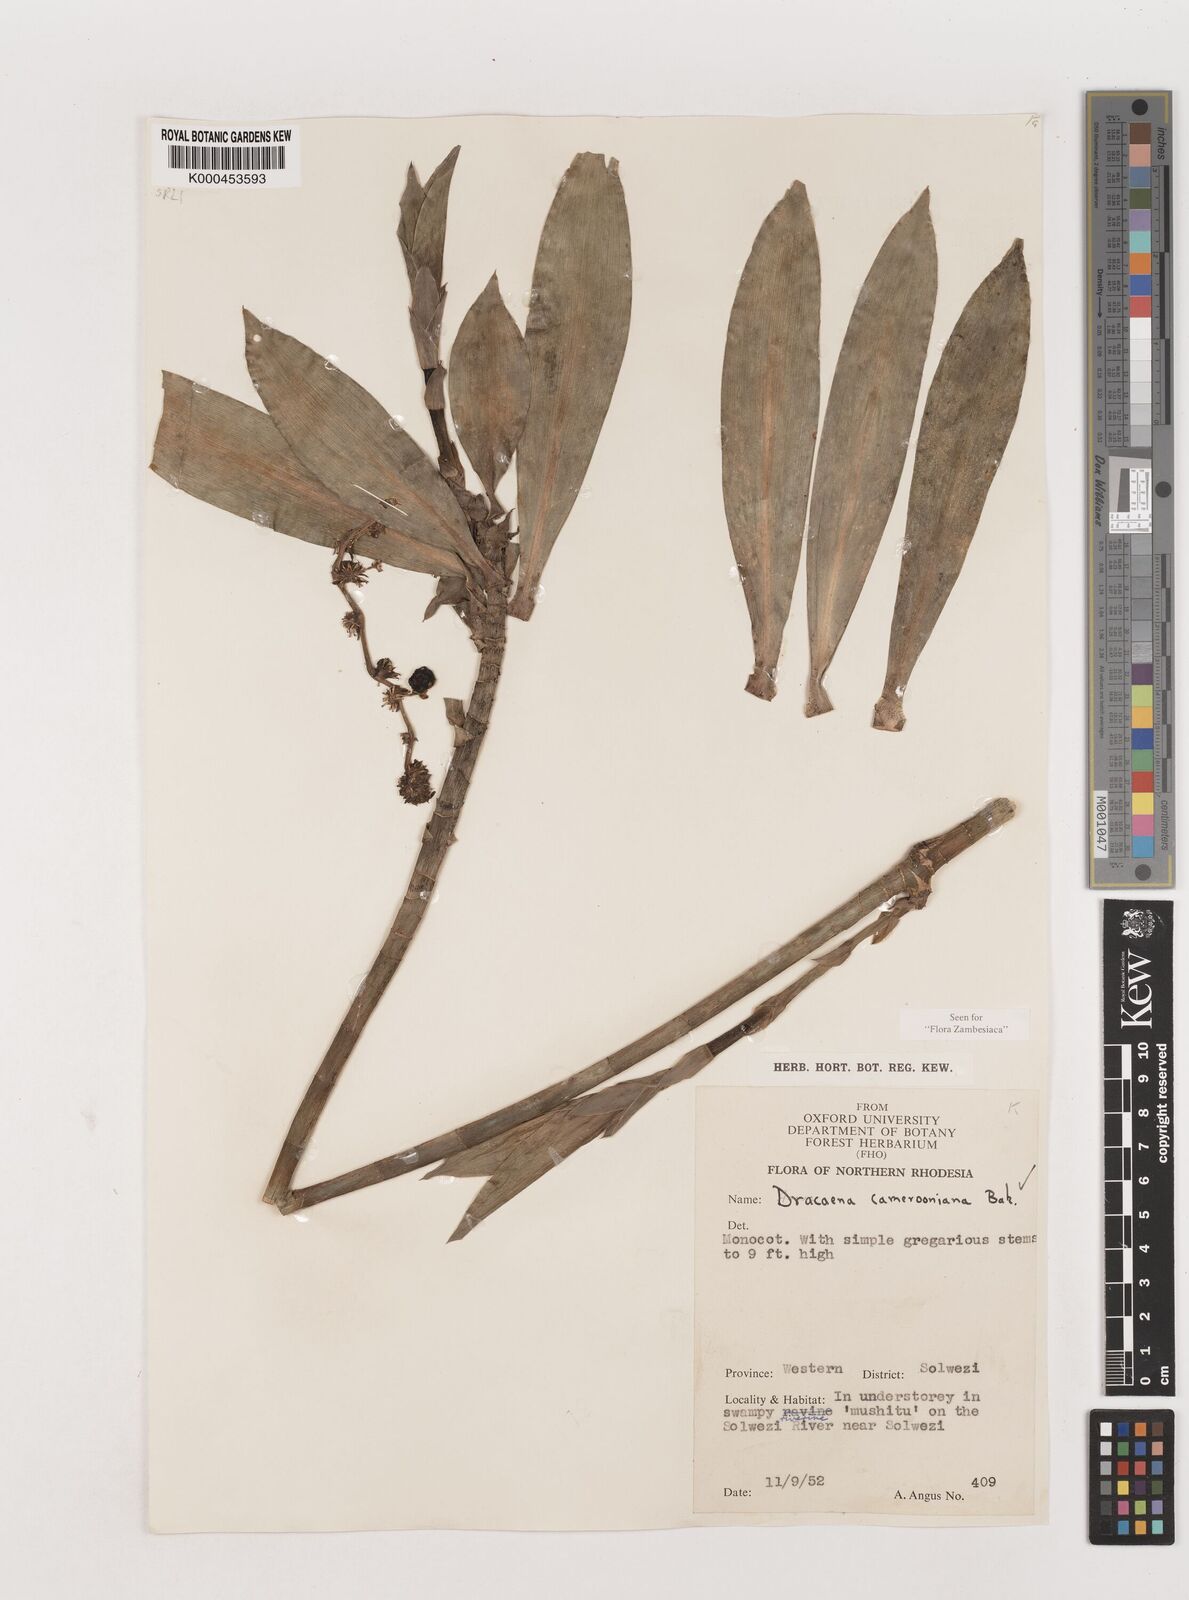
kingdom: Plantae
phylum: Tracheophyta
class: Liliopsida
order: Asparagales
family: Asparagaceae
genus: Dracaena
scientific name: Dracaena camerooniana
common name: Dragon tree
